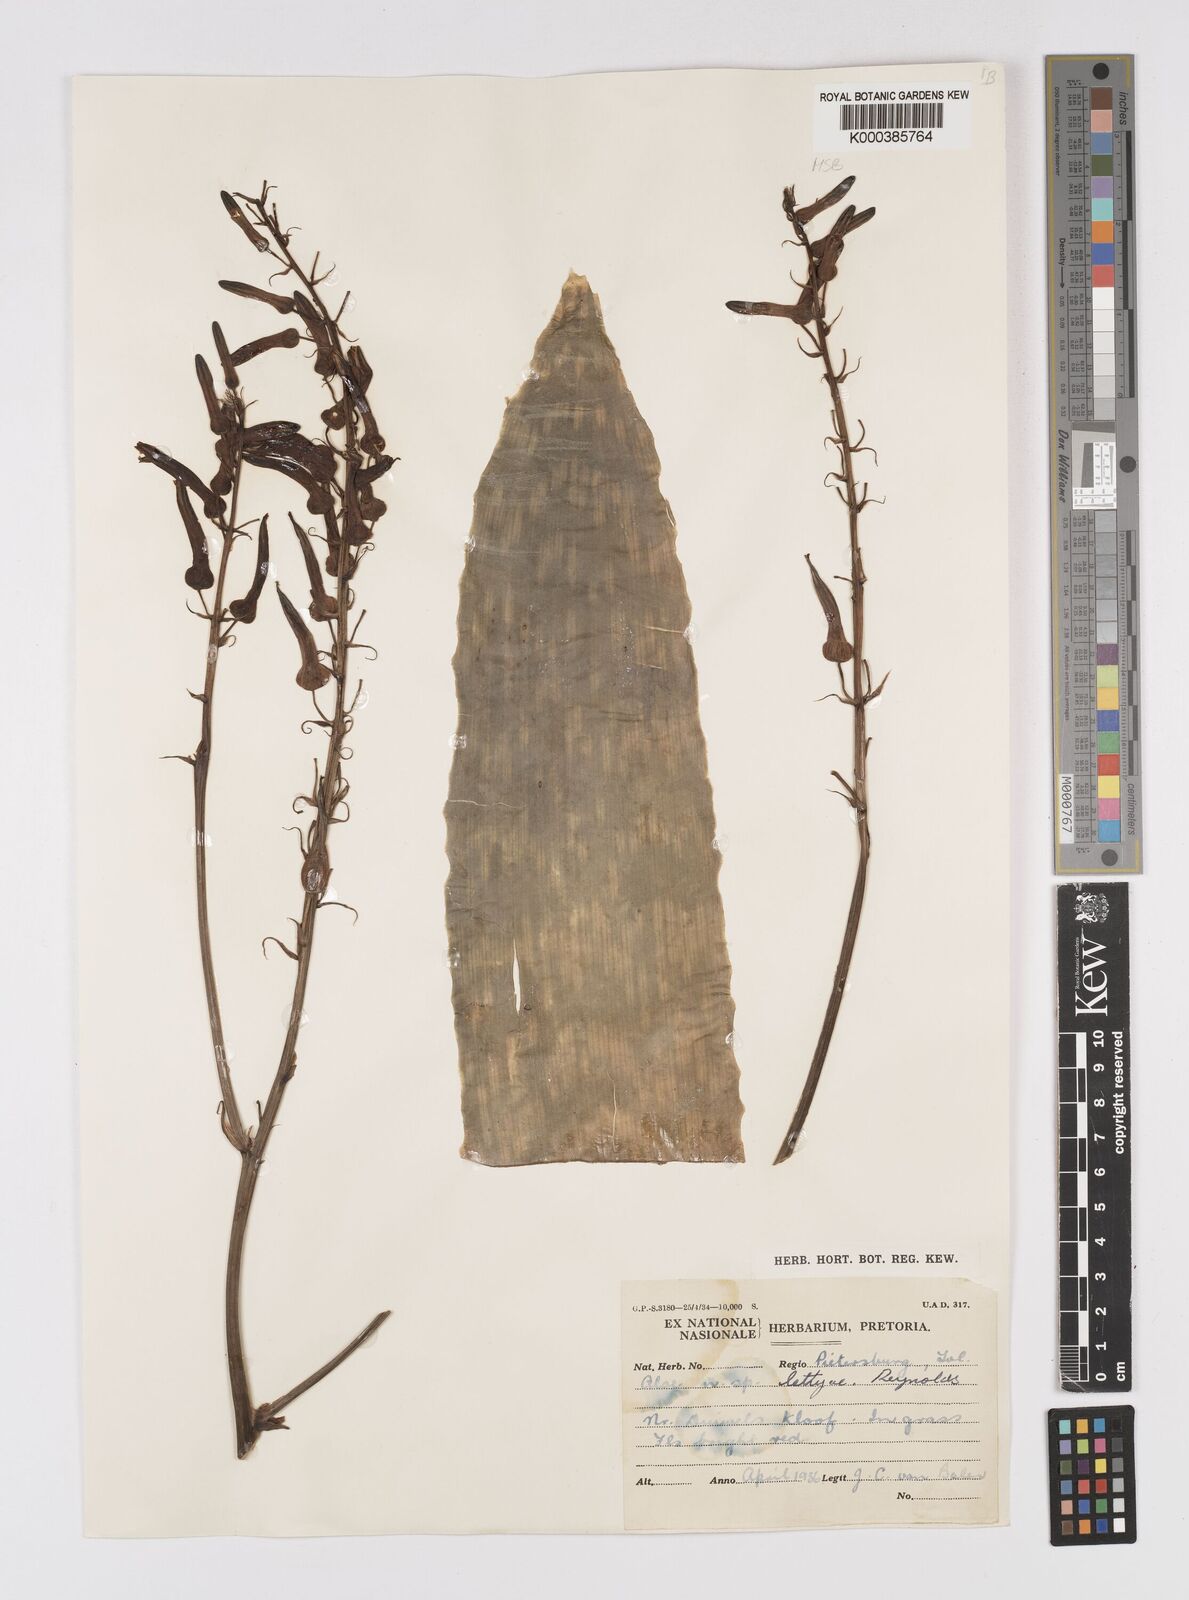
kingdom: Plantae
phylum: Tracheophyta
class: Liliopsida
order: Asparagales
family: Asphodelaceae
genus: Aloe
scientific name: Aloe
